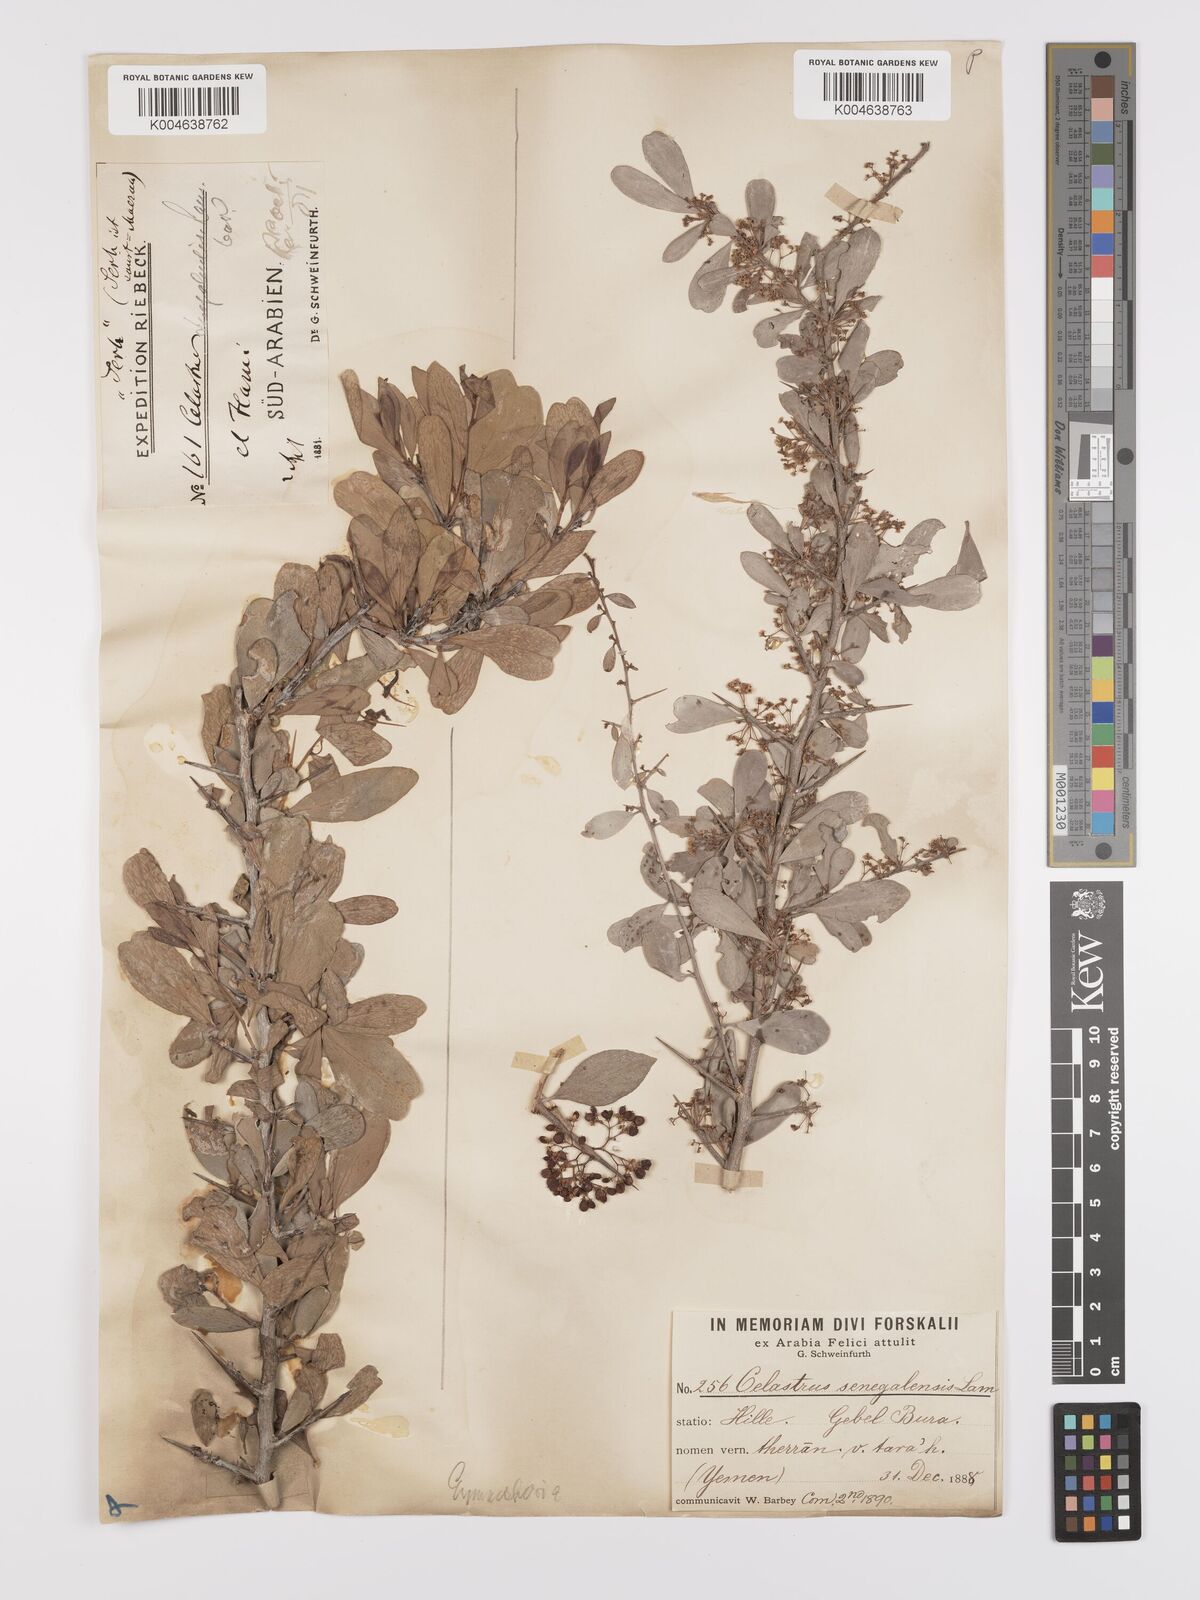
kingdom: Plantae
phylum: Tracheophyta
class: Magnoliopsida
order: Celastrales
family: Celastraceae
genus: Gymnosporia
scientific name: Gymnosporia senegalensis
